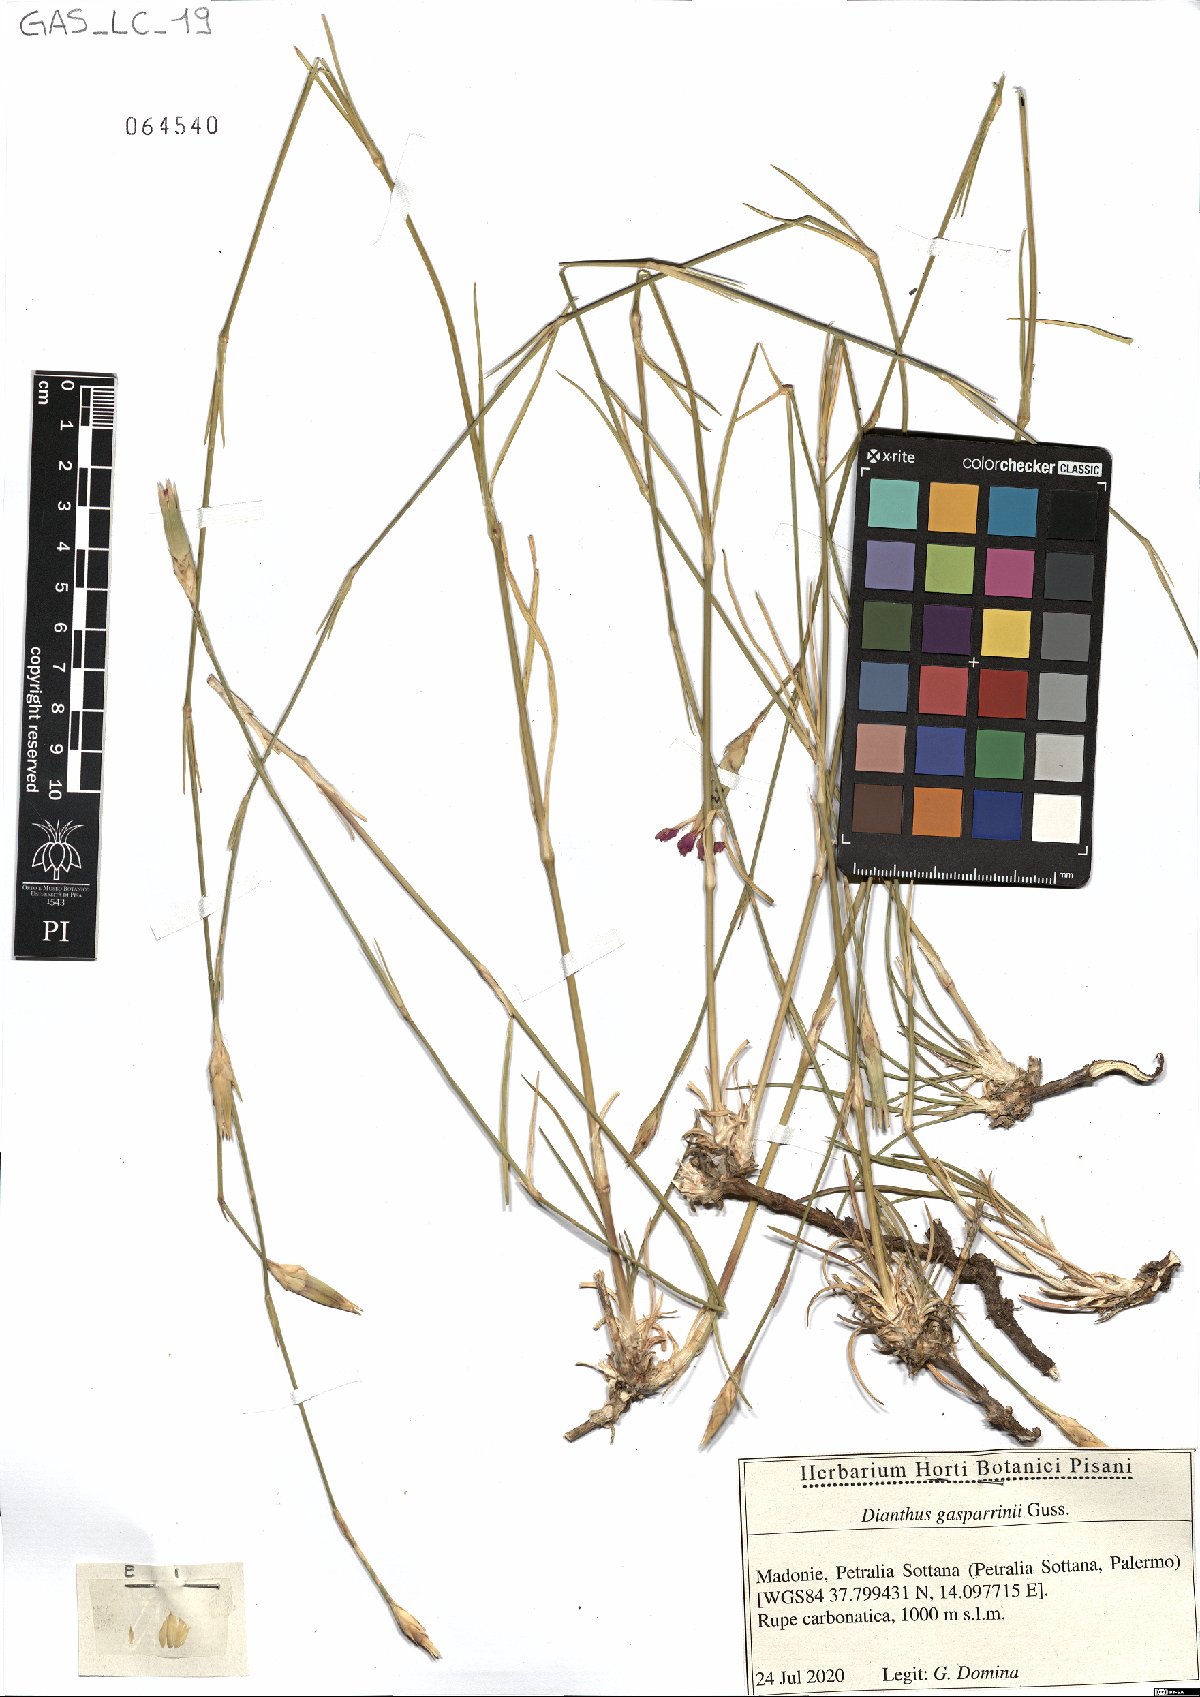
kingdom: Plantae
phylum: Tracheophyta
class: Magnoliopsida
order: Caryophyllales
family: Caryophyllaceae
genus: Dianthus
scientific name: Dianthus gasparrinii
